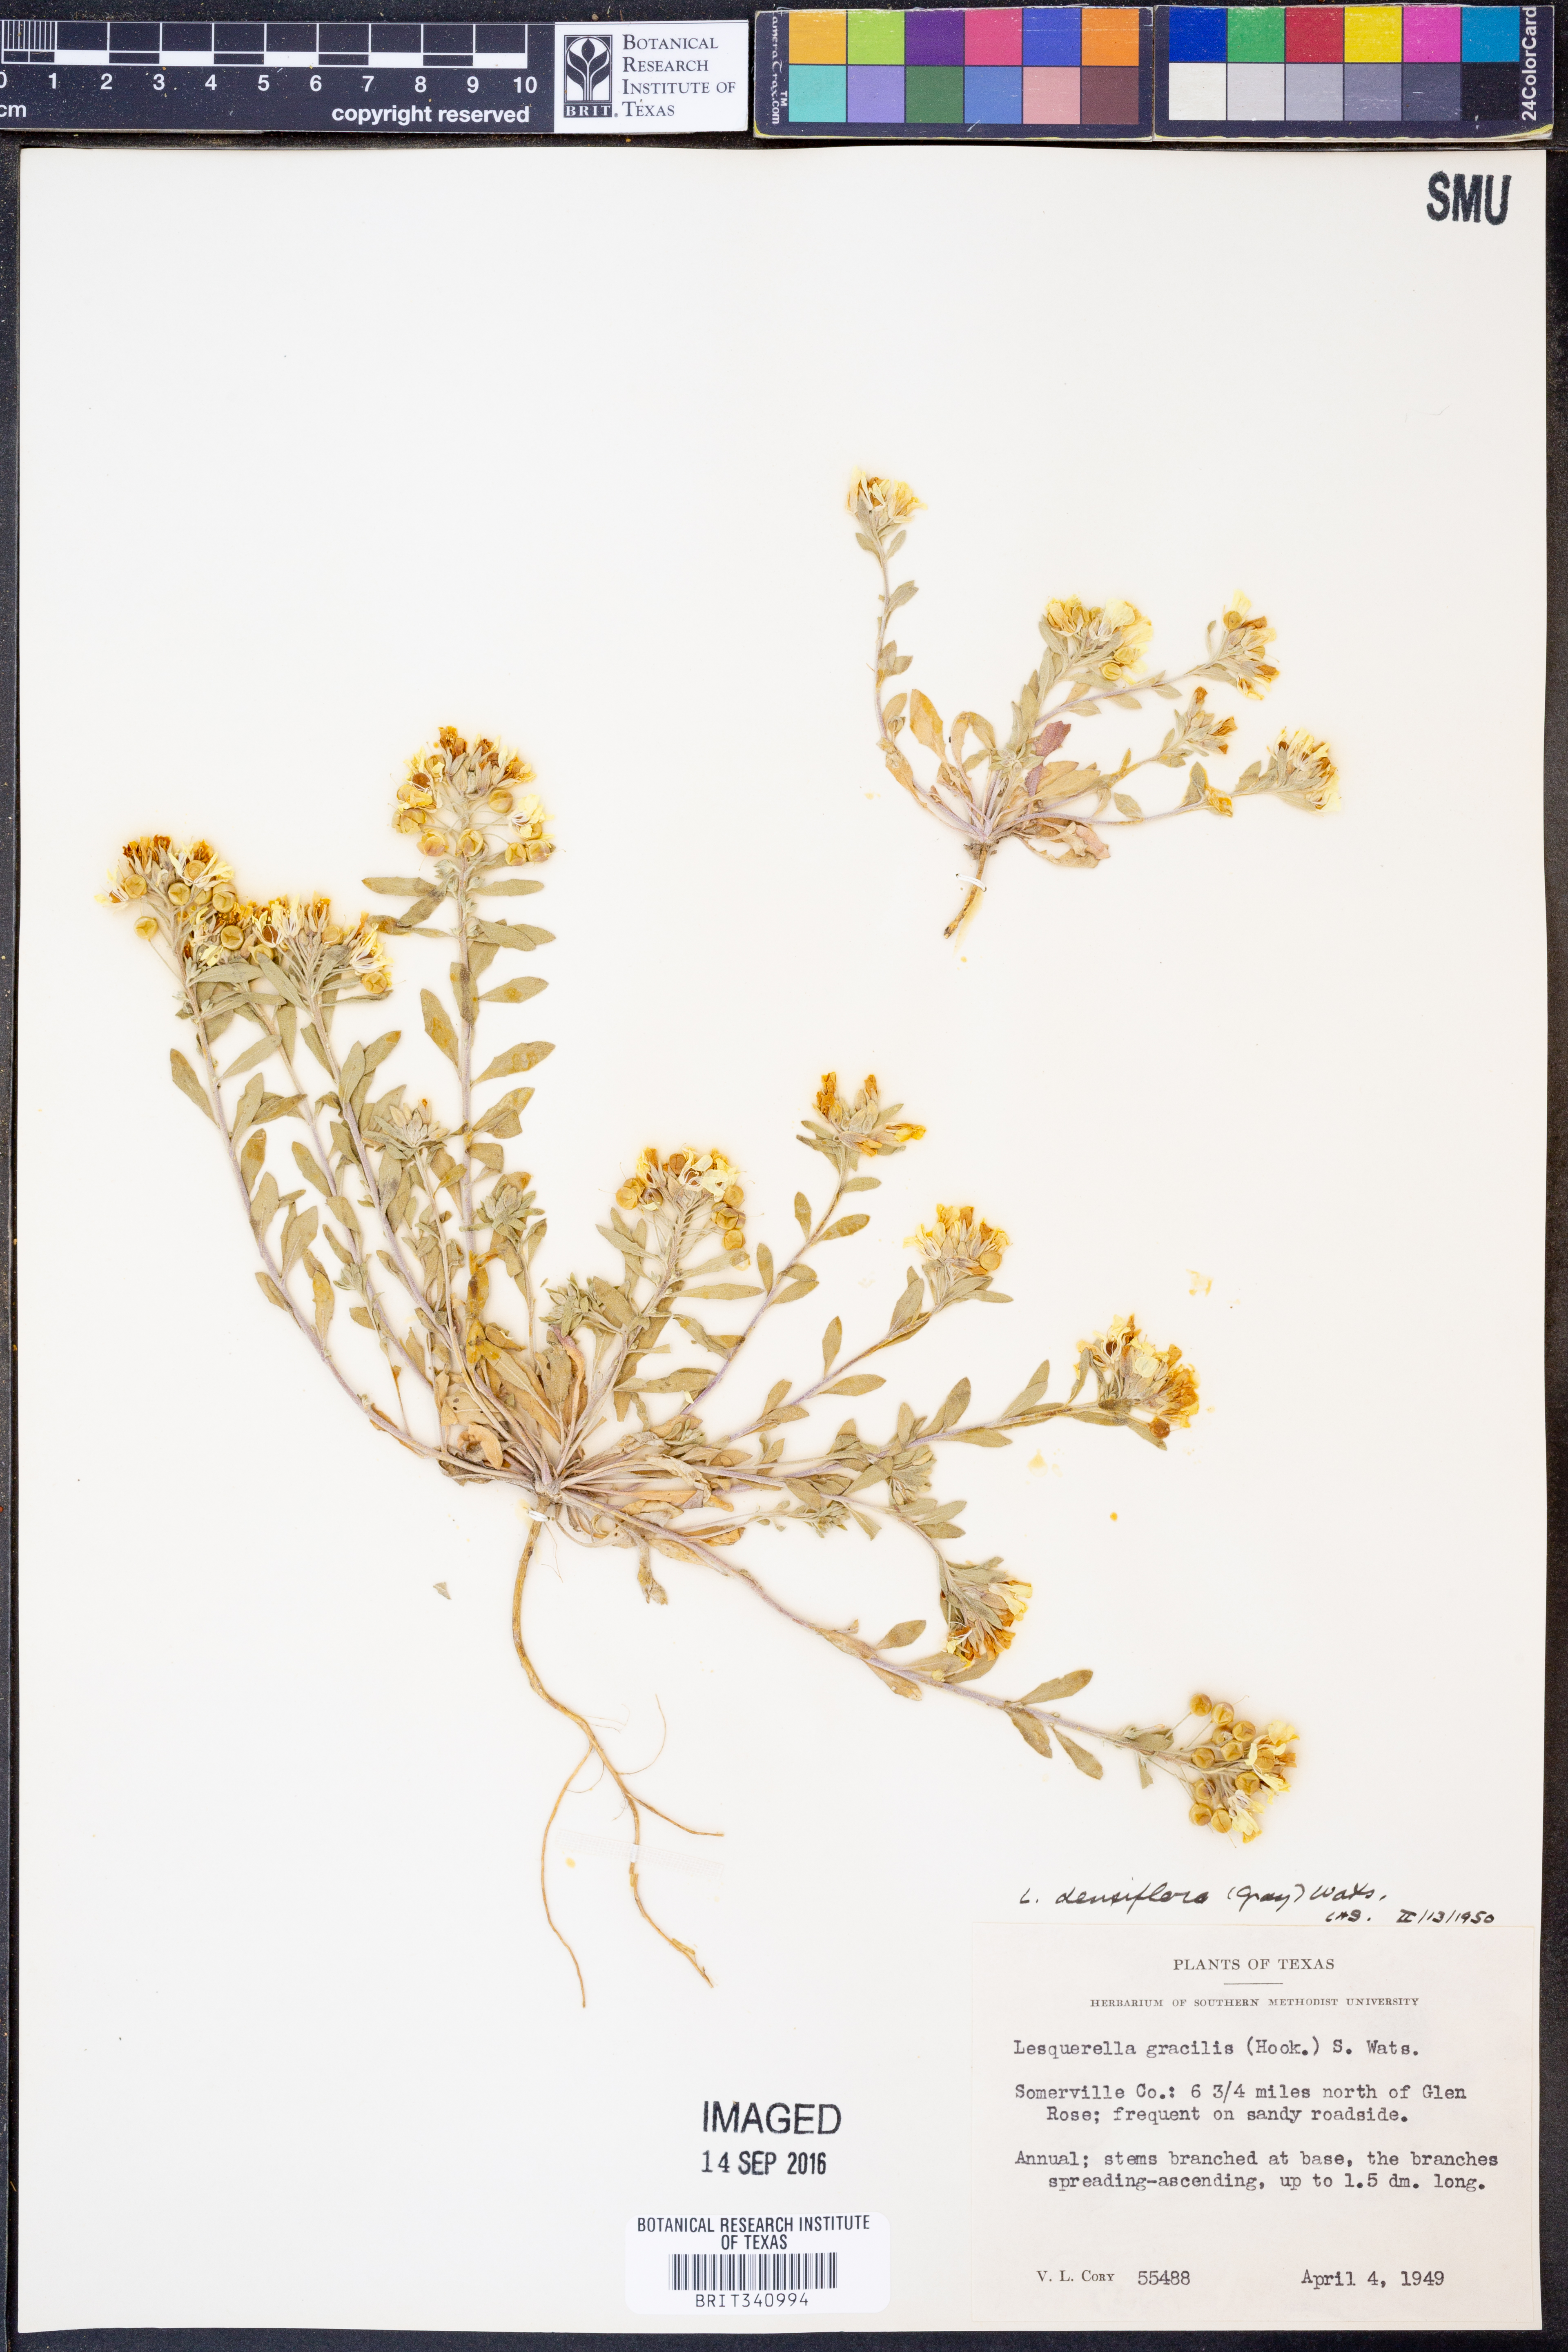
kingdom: Plantae
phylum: Tracheophyta
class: Magnoliopsida
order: Brassicales
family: Brassicaceae
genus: Physaria
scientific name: Physaria densiflora
